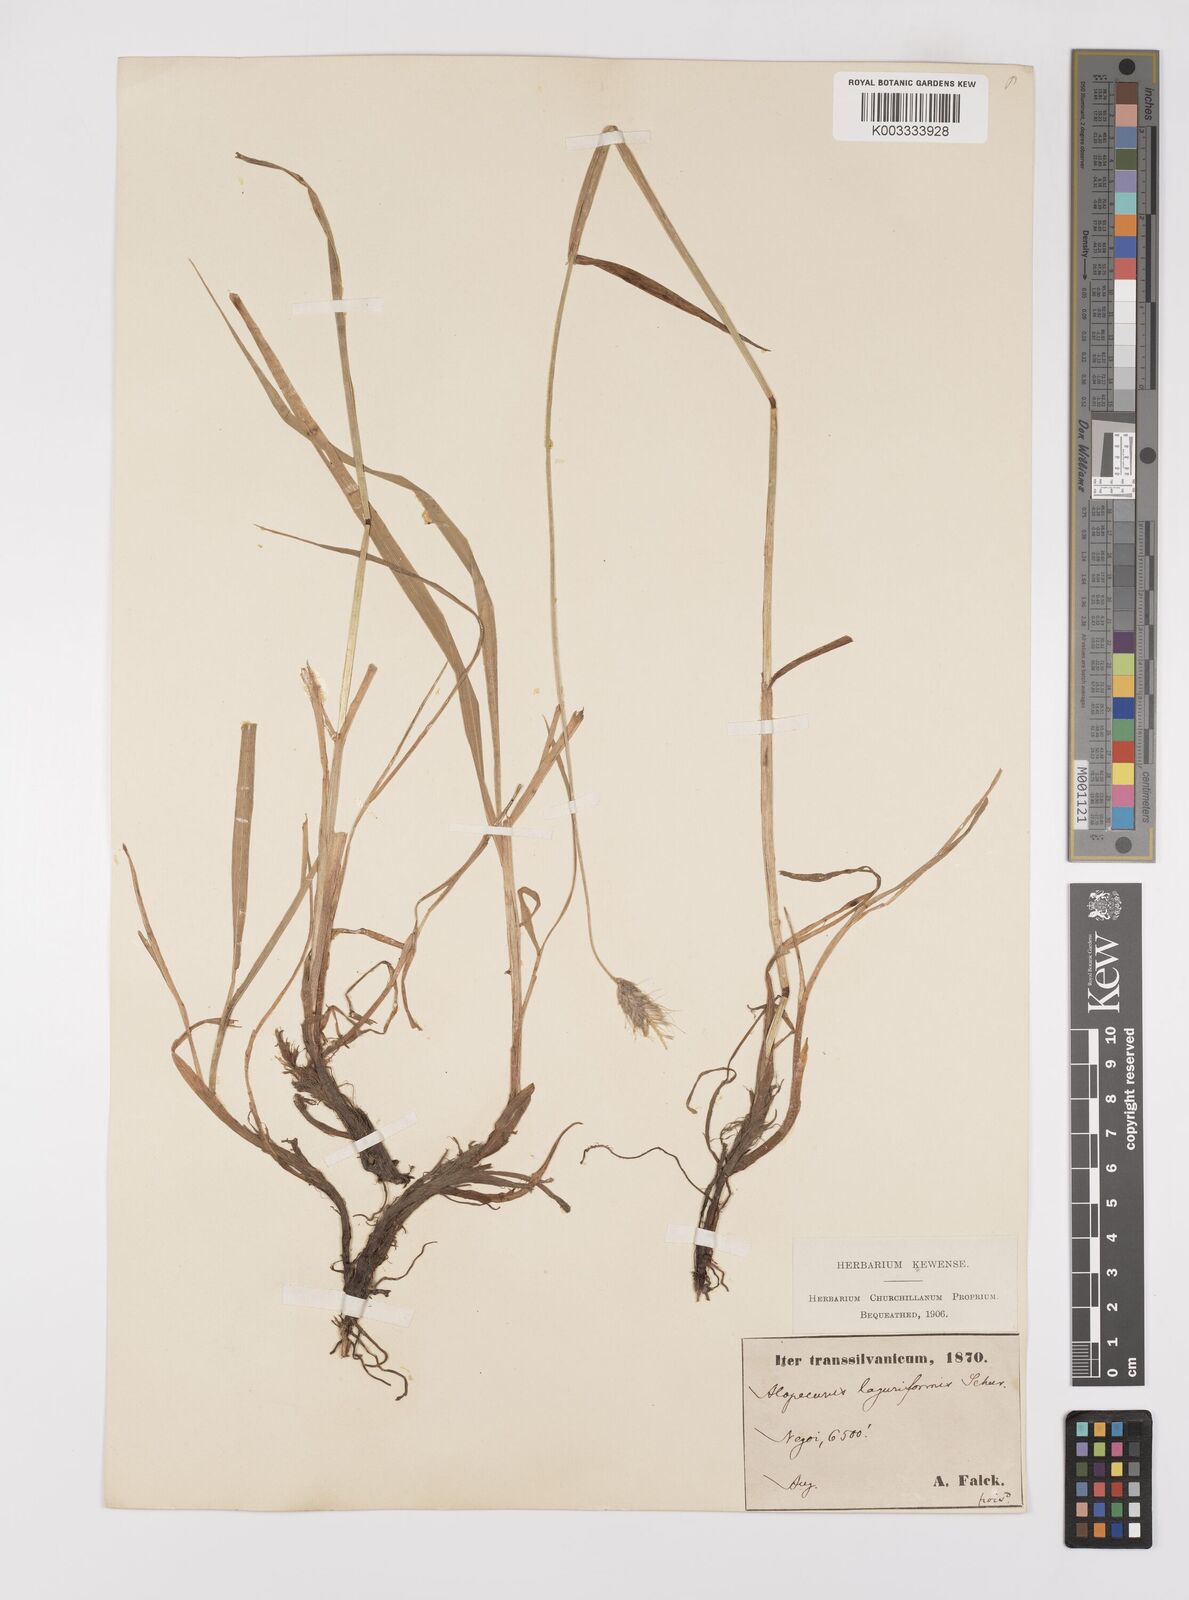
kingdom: Plantae
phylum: Tracheophyta
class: Liliopsida
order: Poales
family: Poaceae
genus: Alopecurus
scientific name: Alopecurus pratensis
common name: Meadow foxtail
